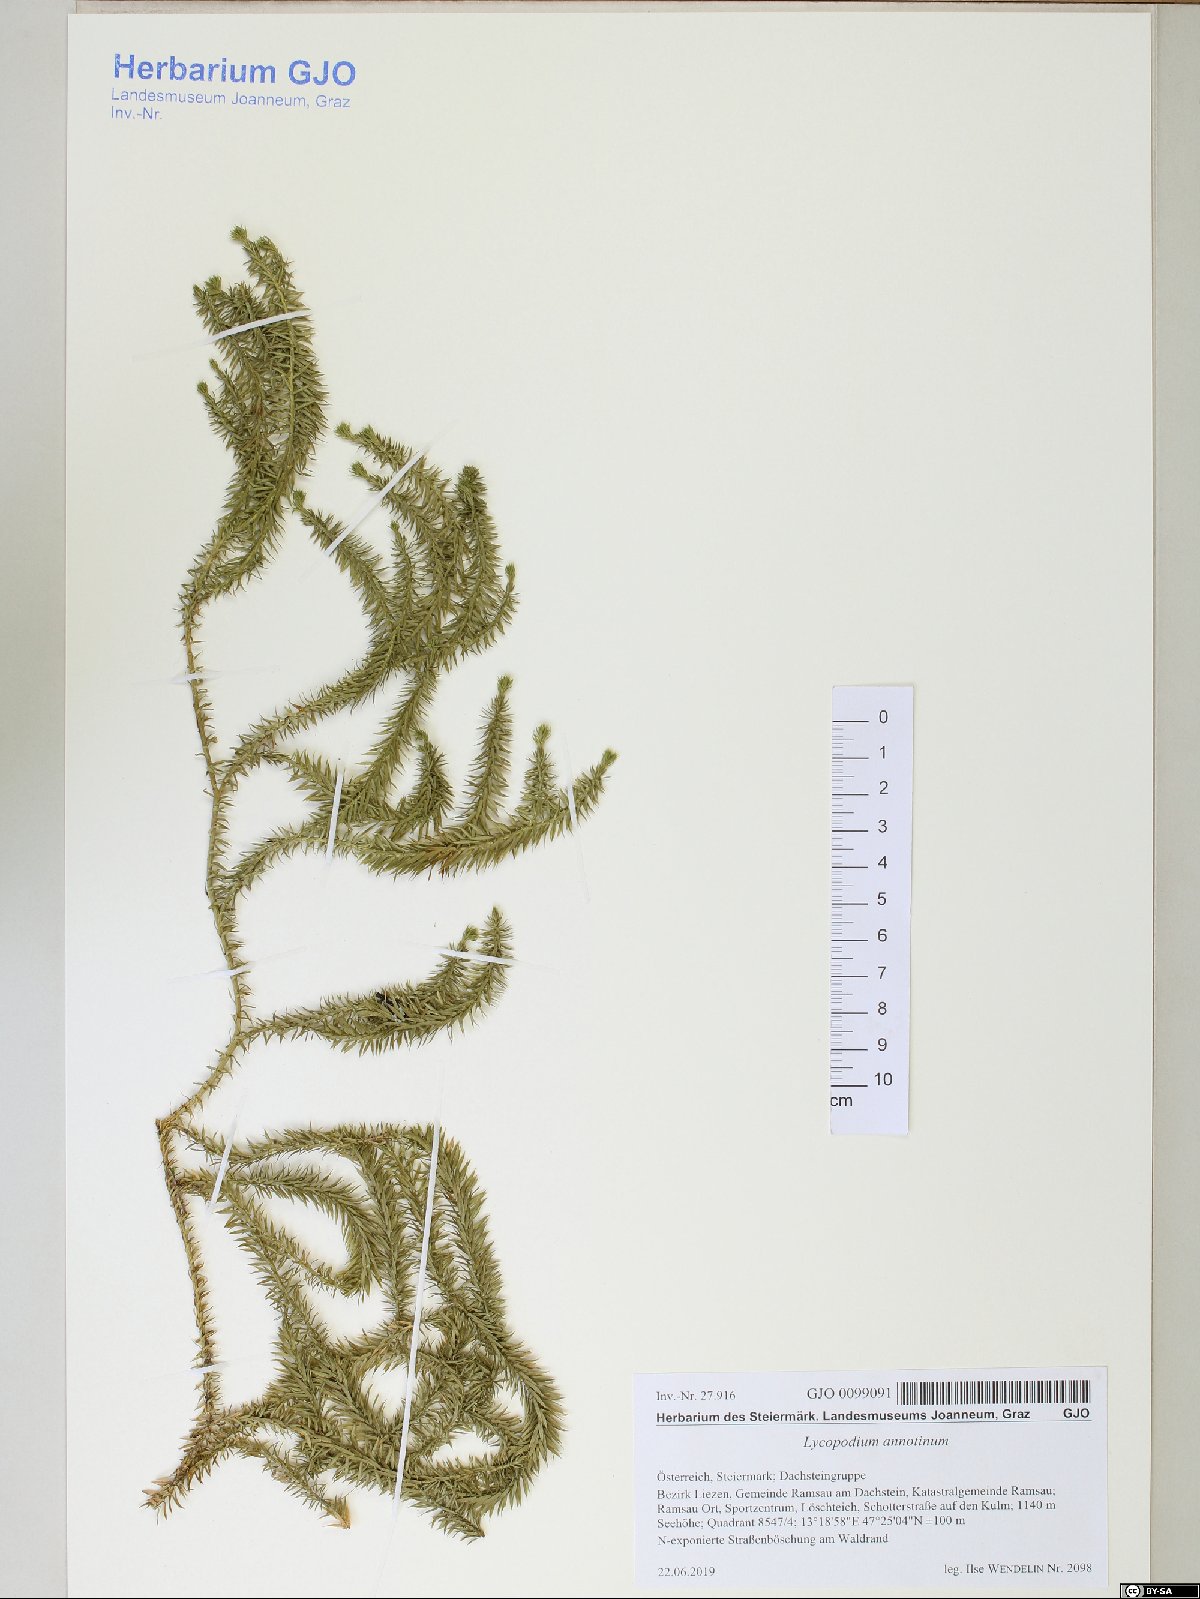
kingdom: Plantae
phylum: Tracheophyta
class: Lycopodiopsida
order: Lycopodiales
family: Lycopodiaceae
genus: Spinulum
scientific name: Spinulum annotinum
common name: Interrupted club-moss
